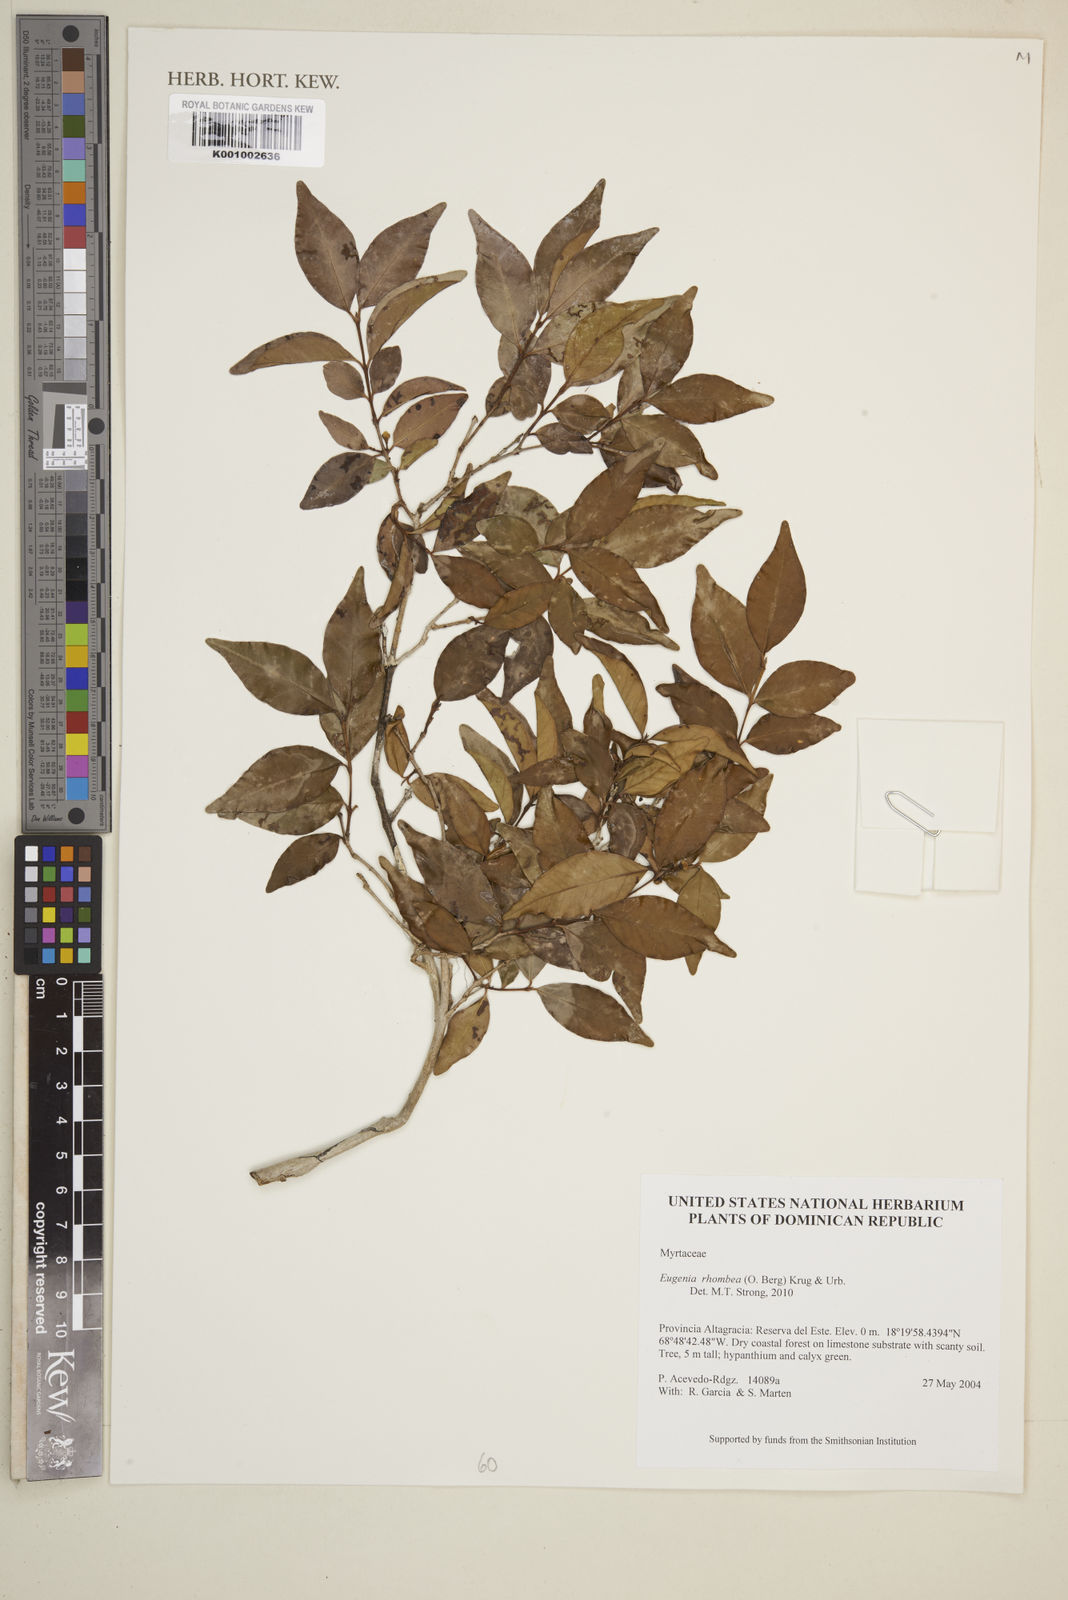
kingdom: Plantae
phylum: Tracheophyta
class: Magnoliopsida
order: Myrtales
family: Myrtaceae
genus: Eugenia
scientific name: Eugenia rhombea
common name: Pigeon berry
